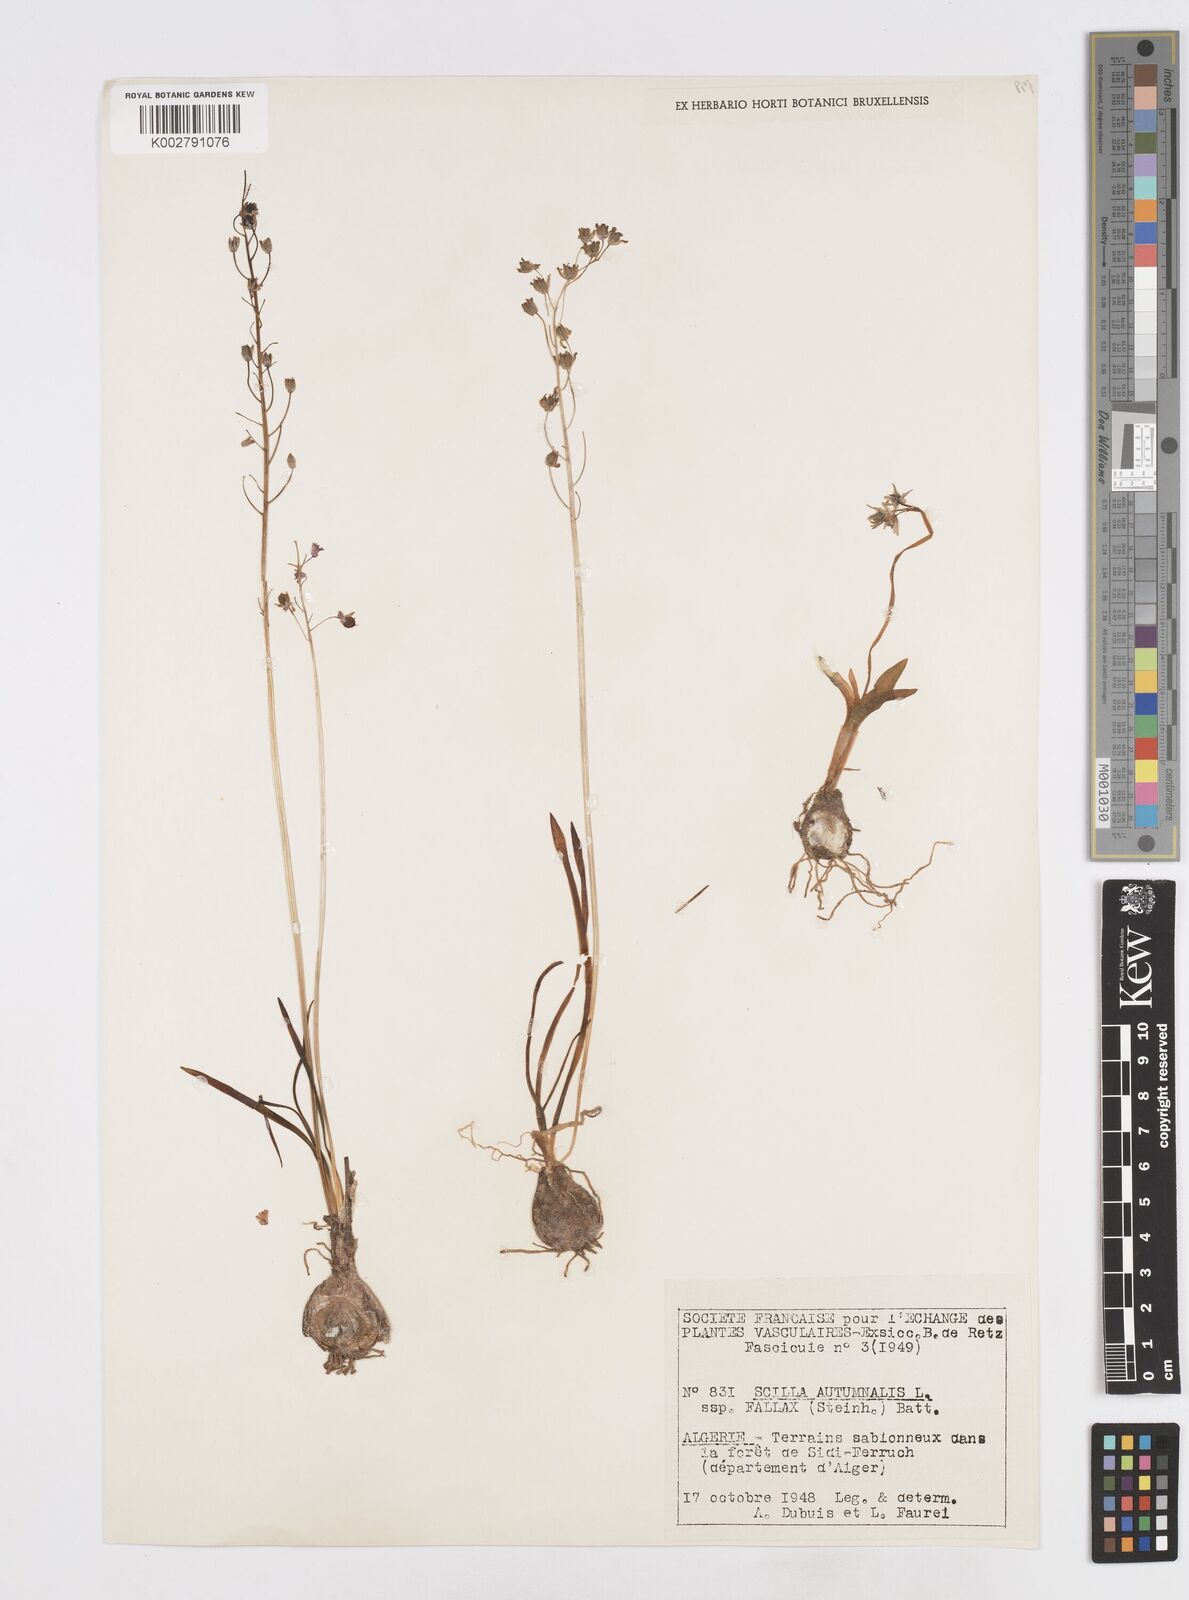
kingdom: Plantae
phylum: Tracheophyta
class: Liliopsida
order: Asparagales
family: Asparagaceae
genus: Prospero
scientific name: Prospero fallax
